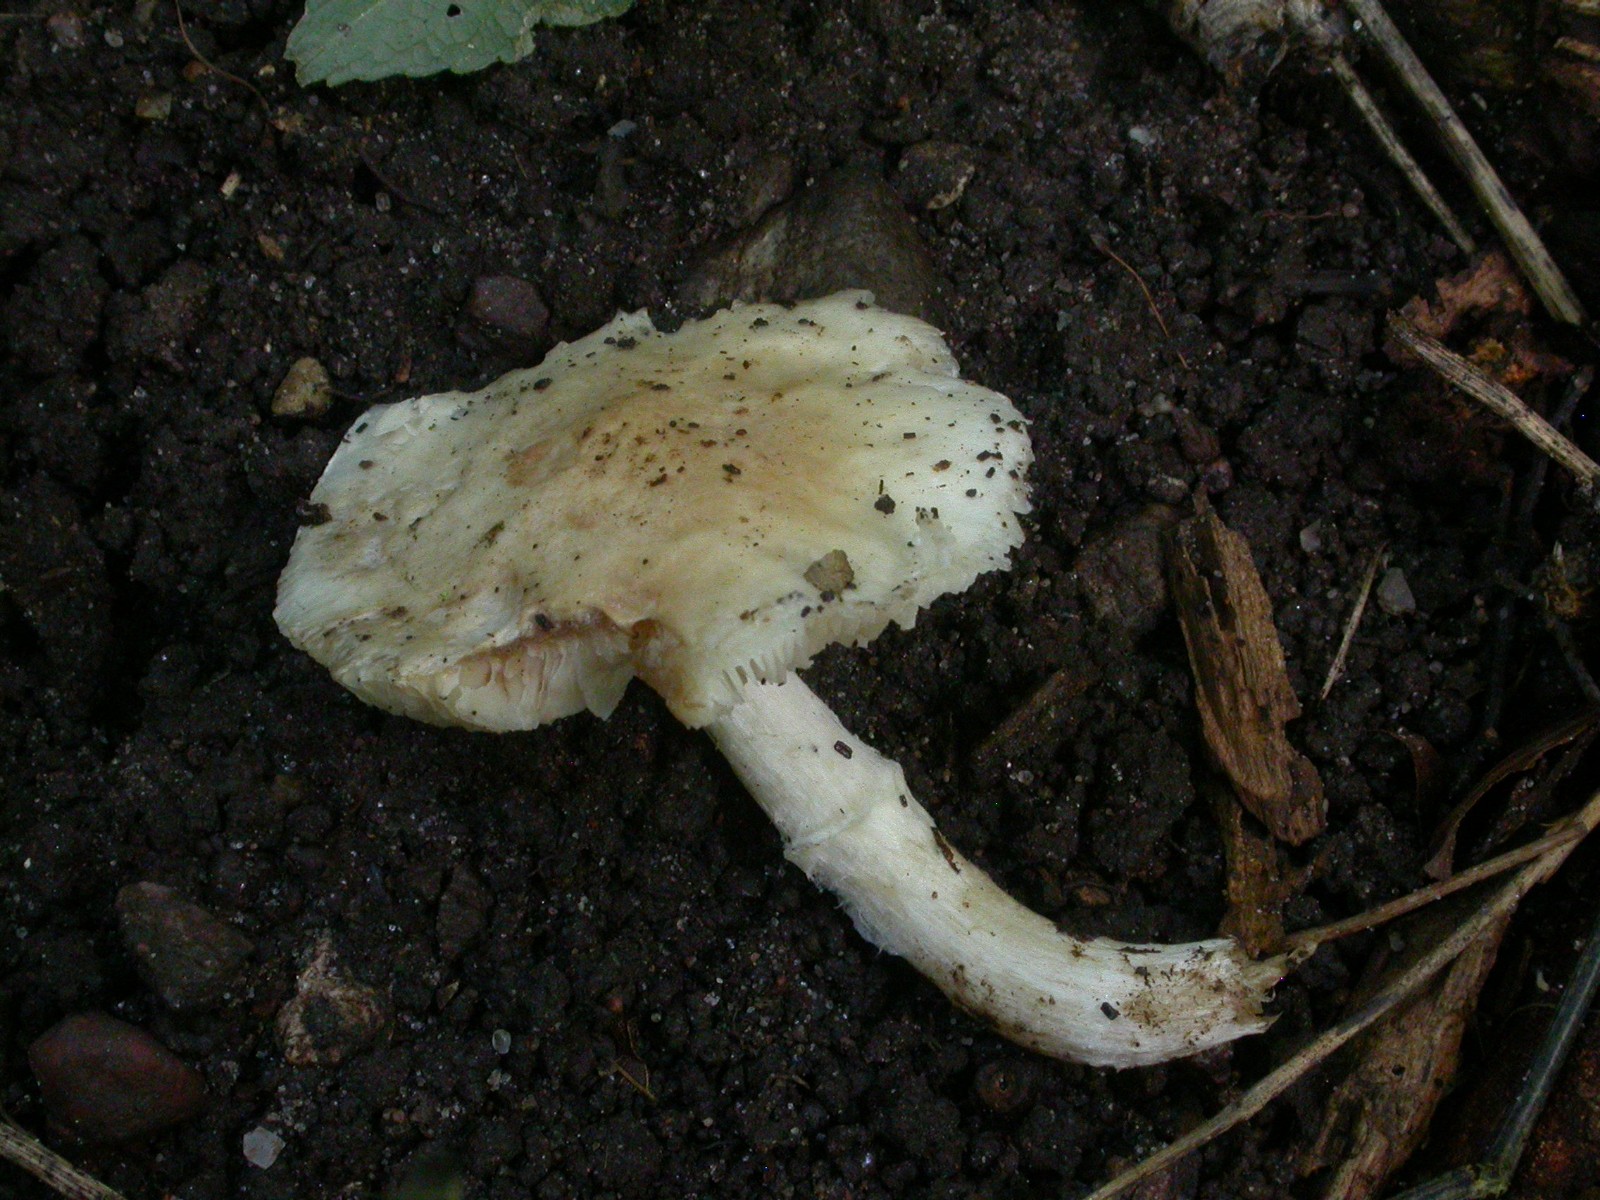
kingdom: Fungi
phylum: Basidiomycota
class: Agaricomycetes
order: Agaricales
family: Amanitaceae
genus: Zhuliangomyces
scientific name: Zhuliangomyces ochraceoluteus
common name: okkergul snekkehat
